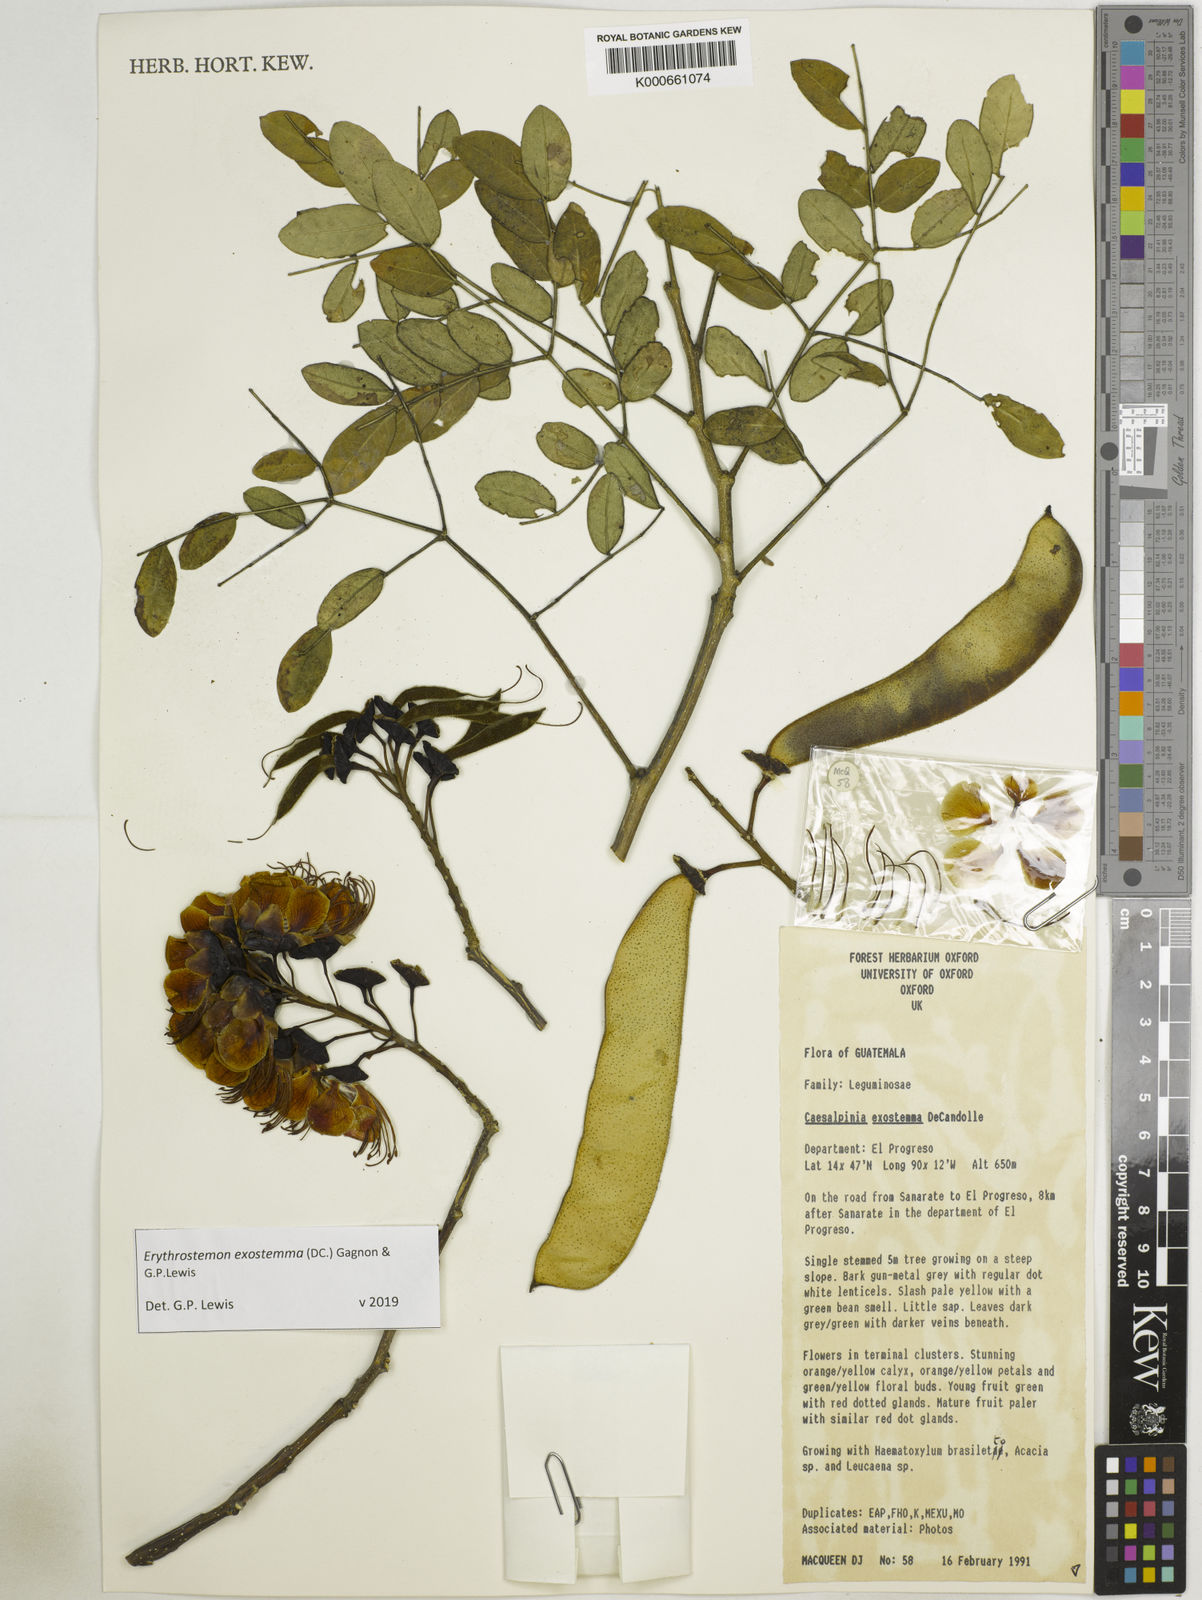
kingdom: Plantae
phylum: Tracheophyta
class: Magnoliopsida
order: Fabales
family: Fabaceae
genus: Erythrostemon
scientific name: Erythrostemon exostemma
